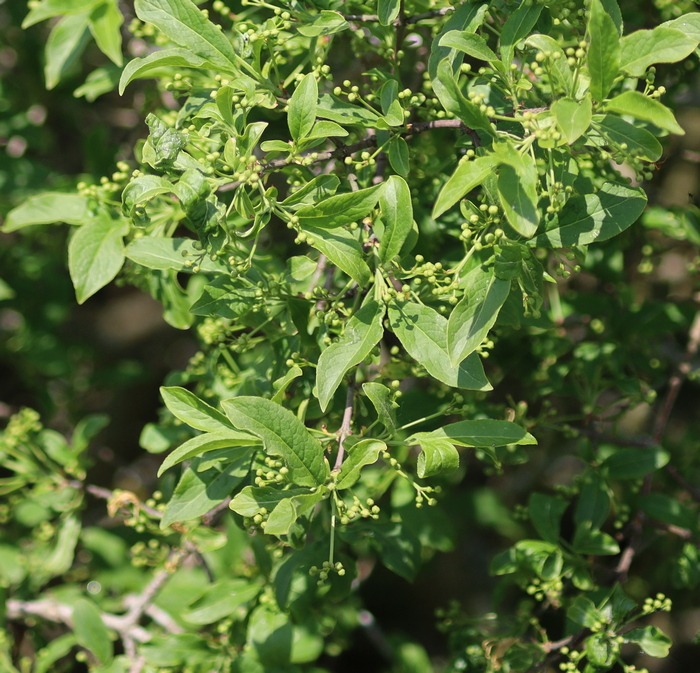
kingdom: Plantae
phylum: Tracheophyta
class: Magnoliopsida
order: Celastrales
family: Celastraceae
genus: Euonymus
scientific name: Euonymus europaeus
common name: Benved
